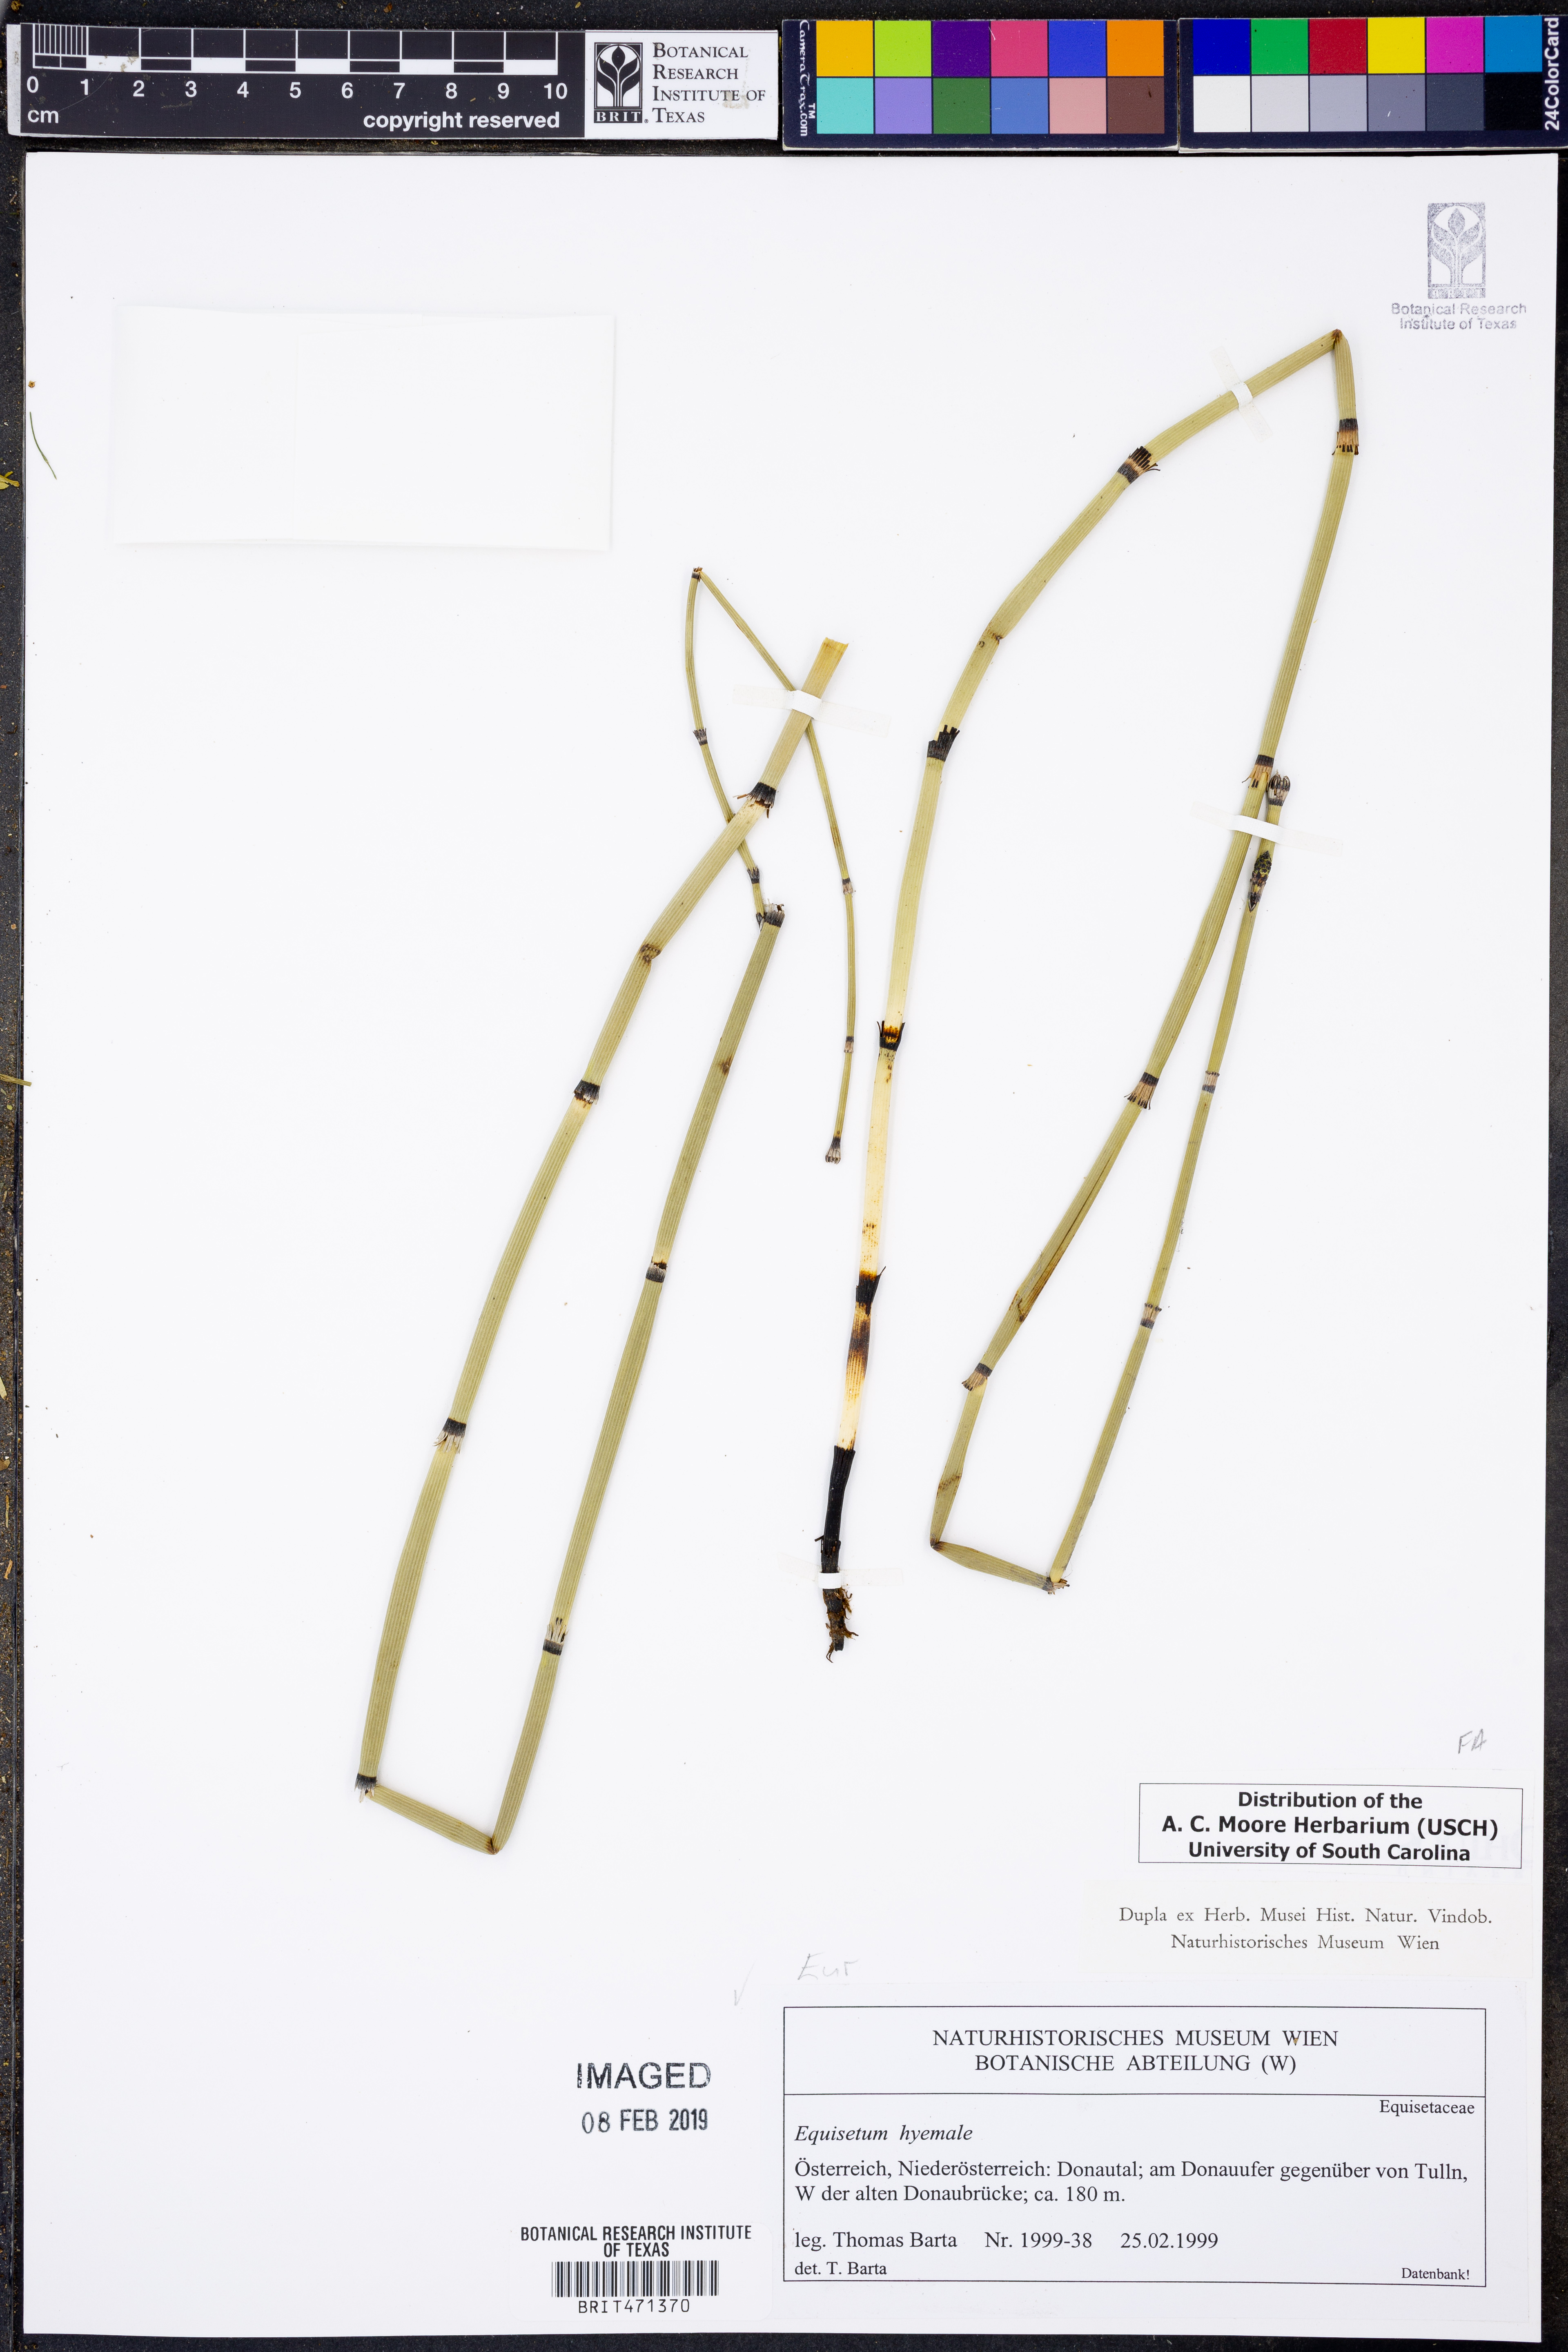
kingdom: Plantae
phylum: Tracheophyta
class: Polypodiopsida
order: Equisetales
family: Equisetaceae
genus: Equisetum
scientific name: Equisetum hyemale
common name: Rough horsetail
